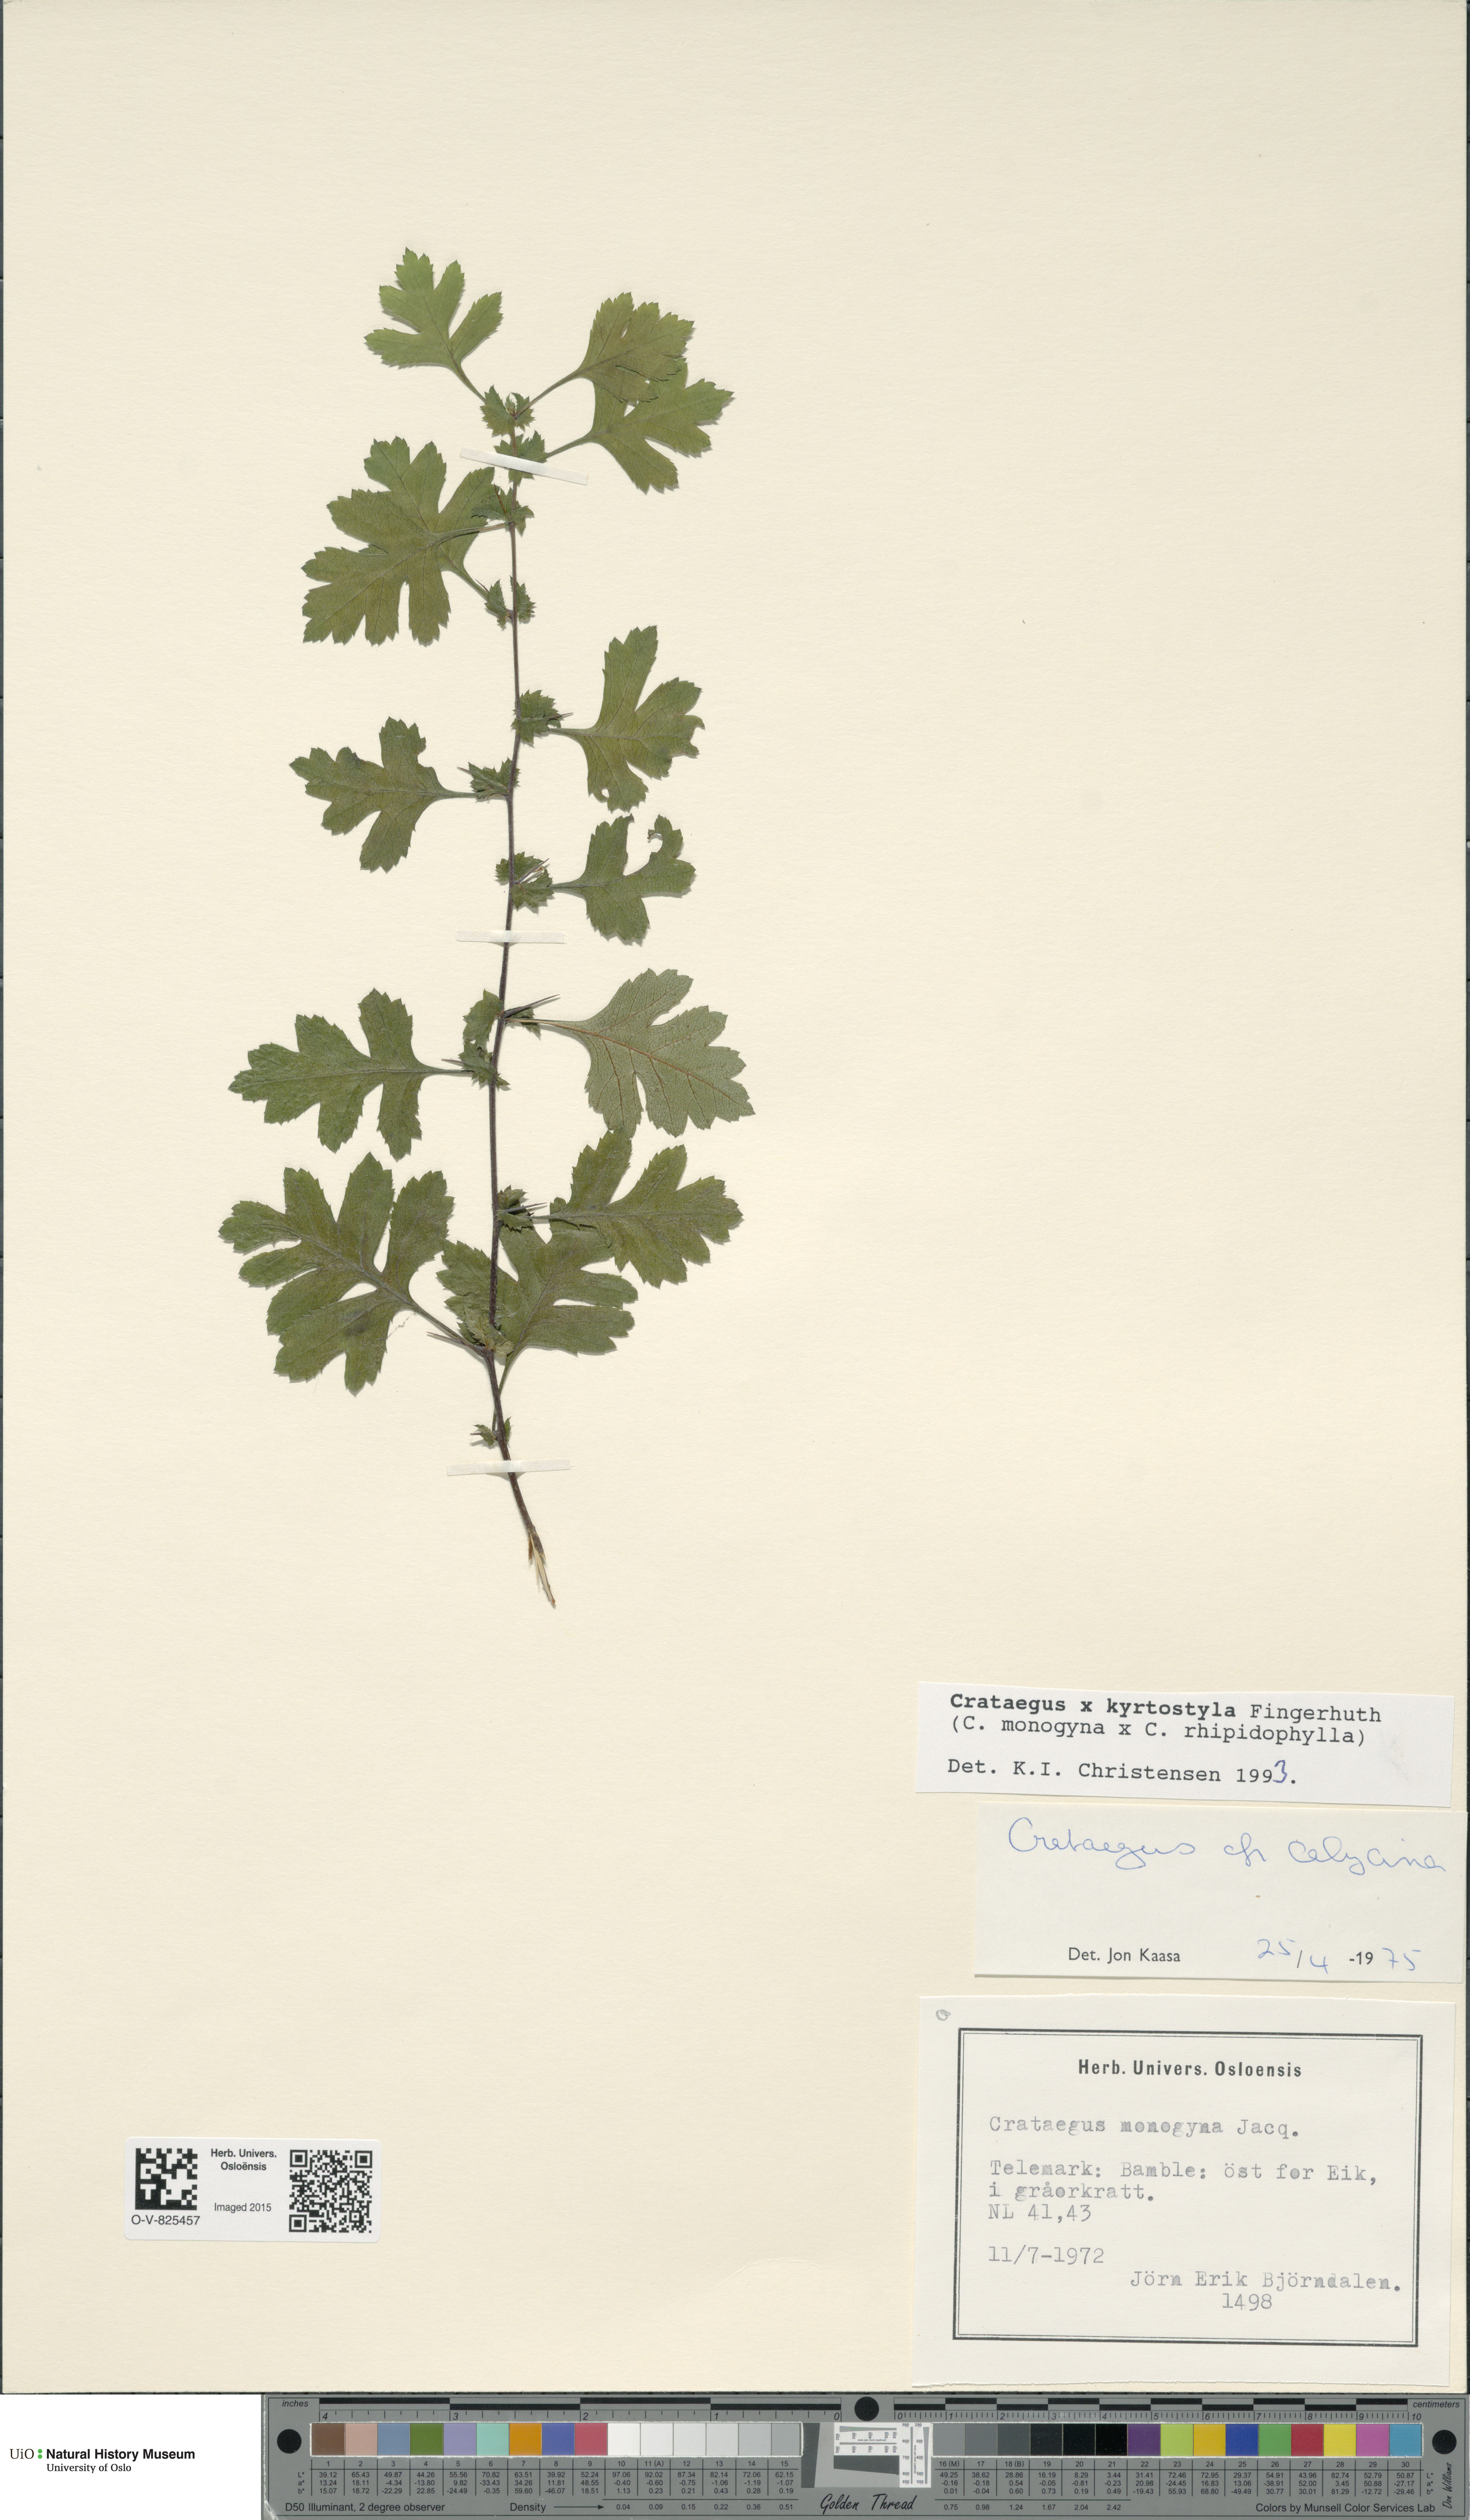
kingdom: Plantae
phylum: Tracheophyta
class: Magnoliopsida
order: Rosales
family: Rosaceae
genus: Crataegus
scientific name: Crataegus kyrtostyla
